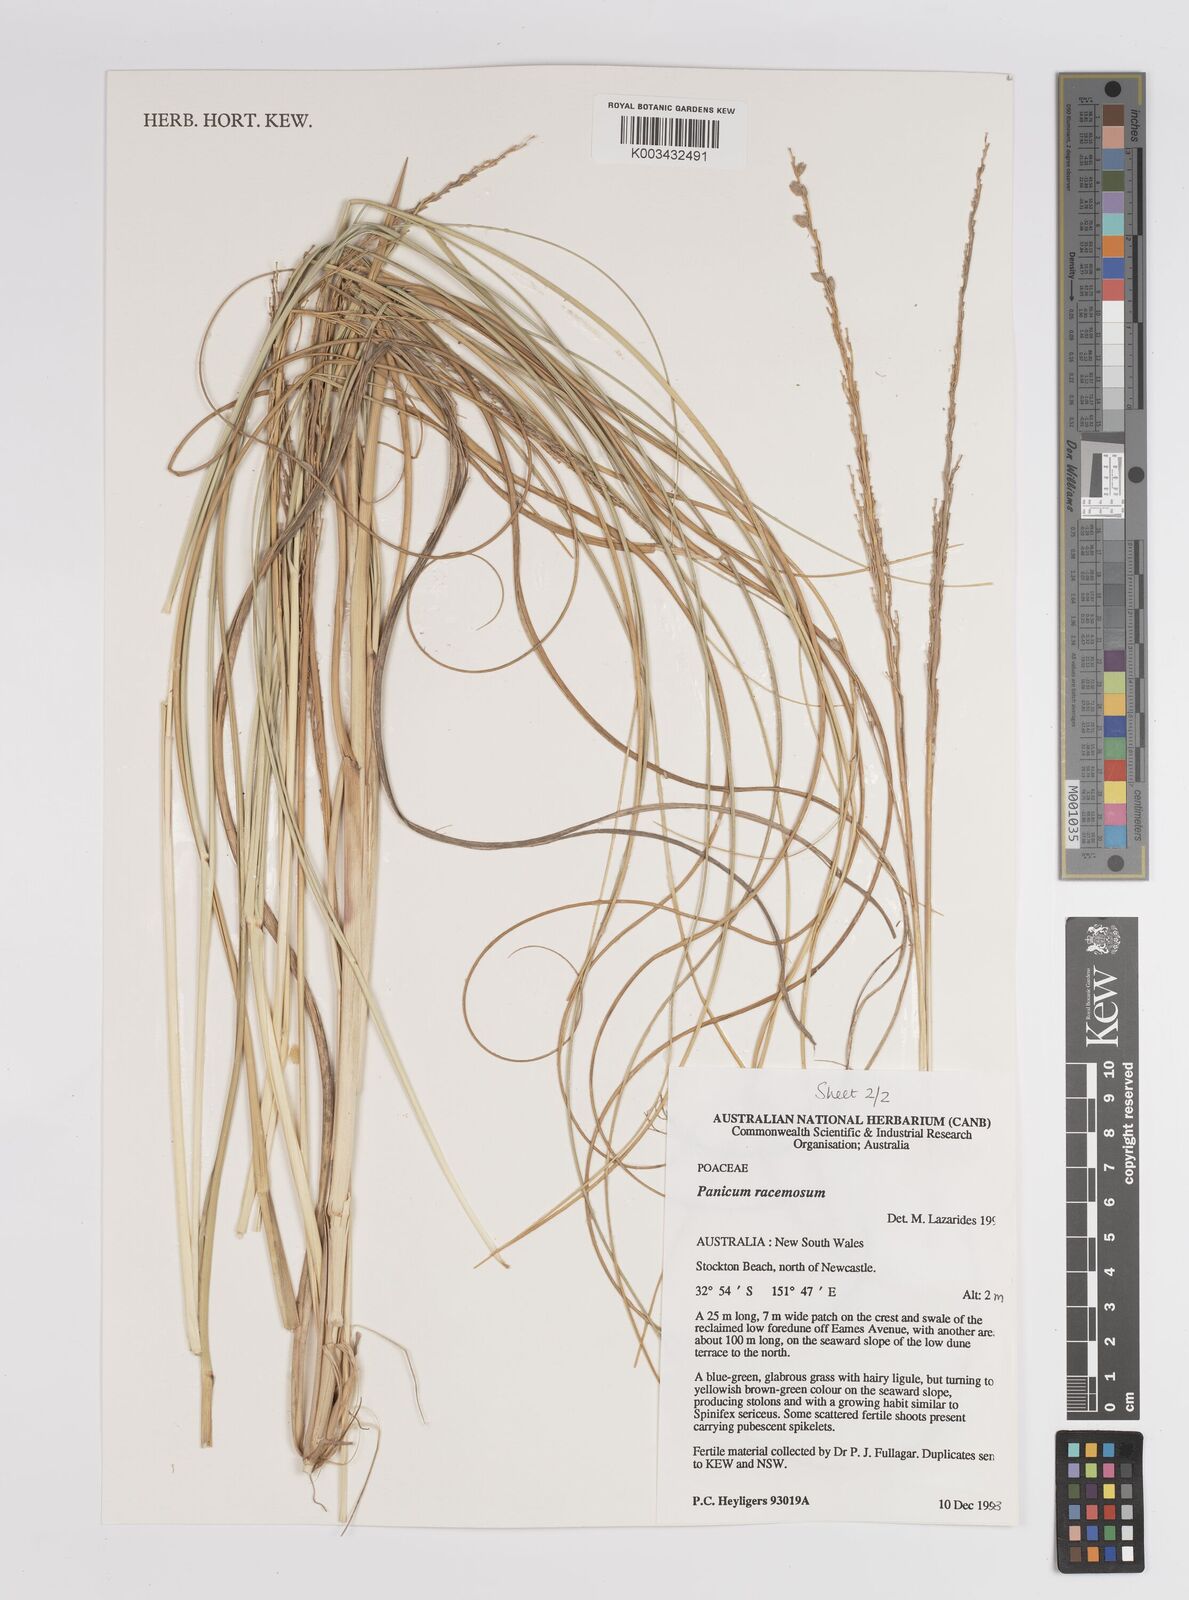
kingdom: Plantae
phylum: Tracheophyta
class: Liliopsida
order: Poales
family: Poaceae
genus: Panicum
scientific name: Panicum racemosum
